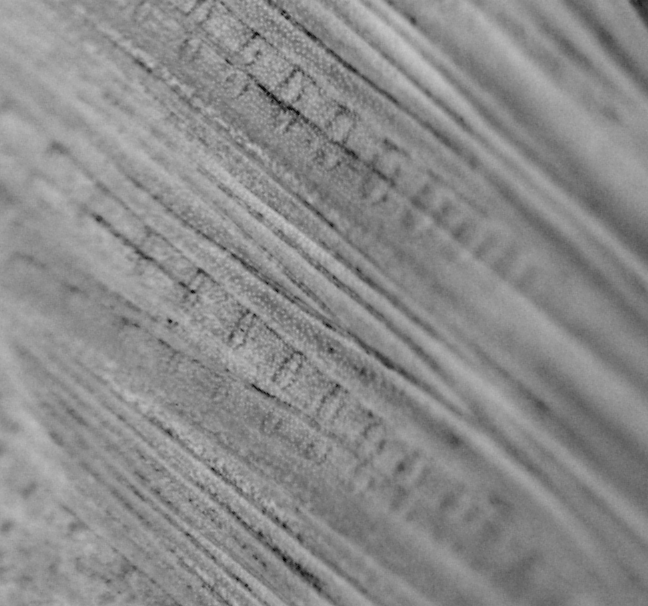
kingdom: Animalia
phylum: Chordata
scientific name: Chordata
